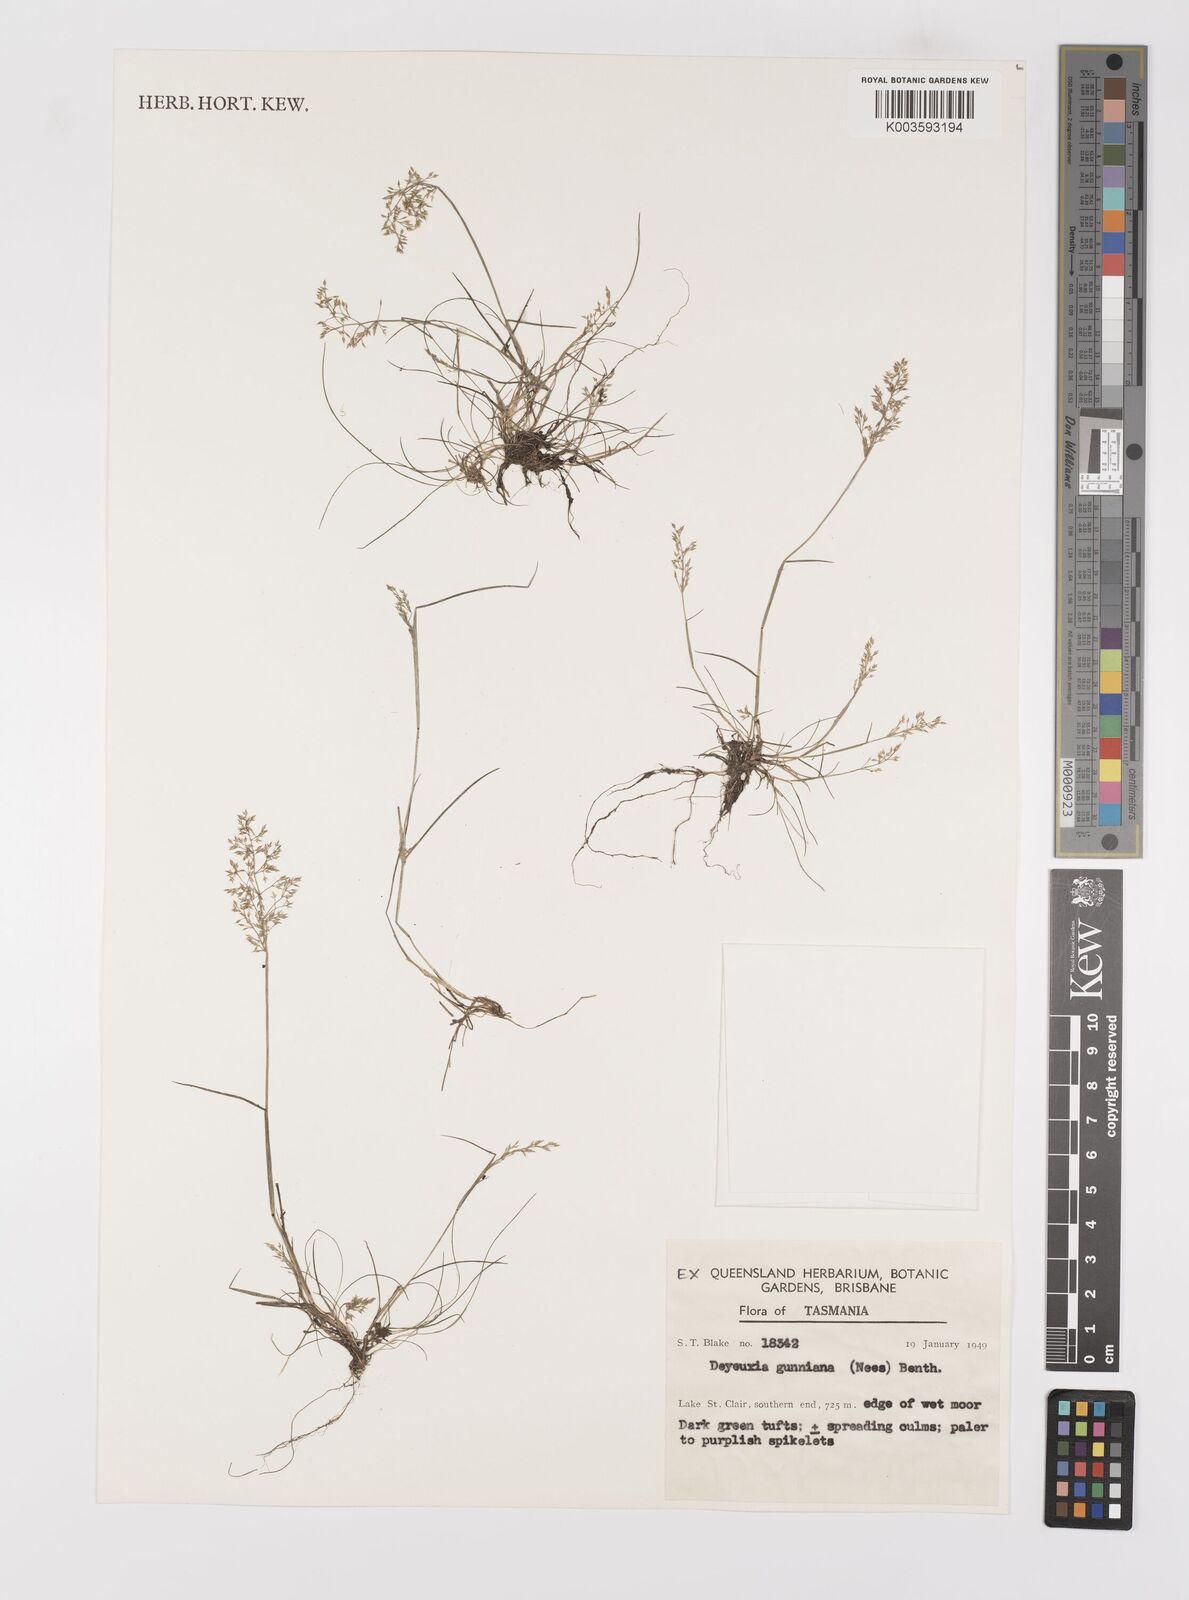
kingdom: Plantae
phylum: Tracheophyta
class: Liliopsida
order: Poales
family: Poaceae
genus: Ancistragrostis
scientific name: Ancistragrostis
